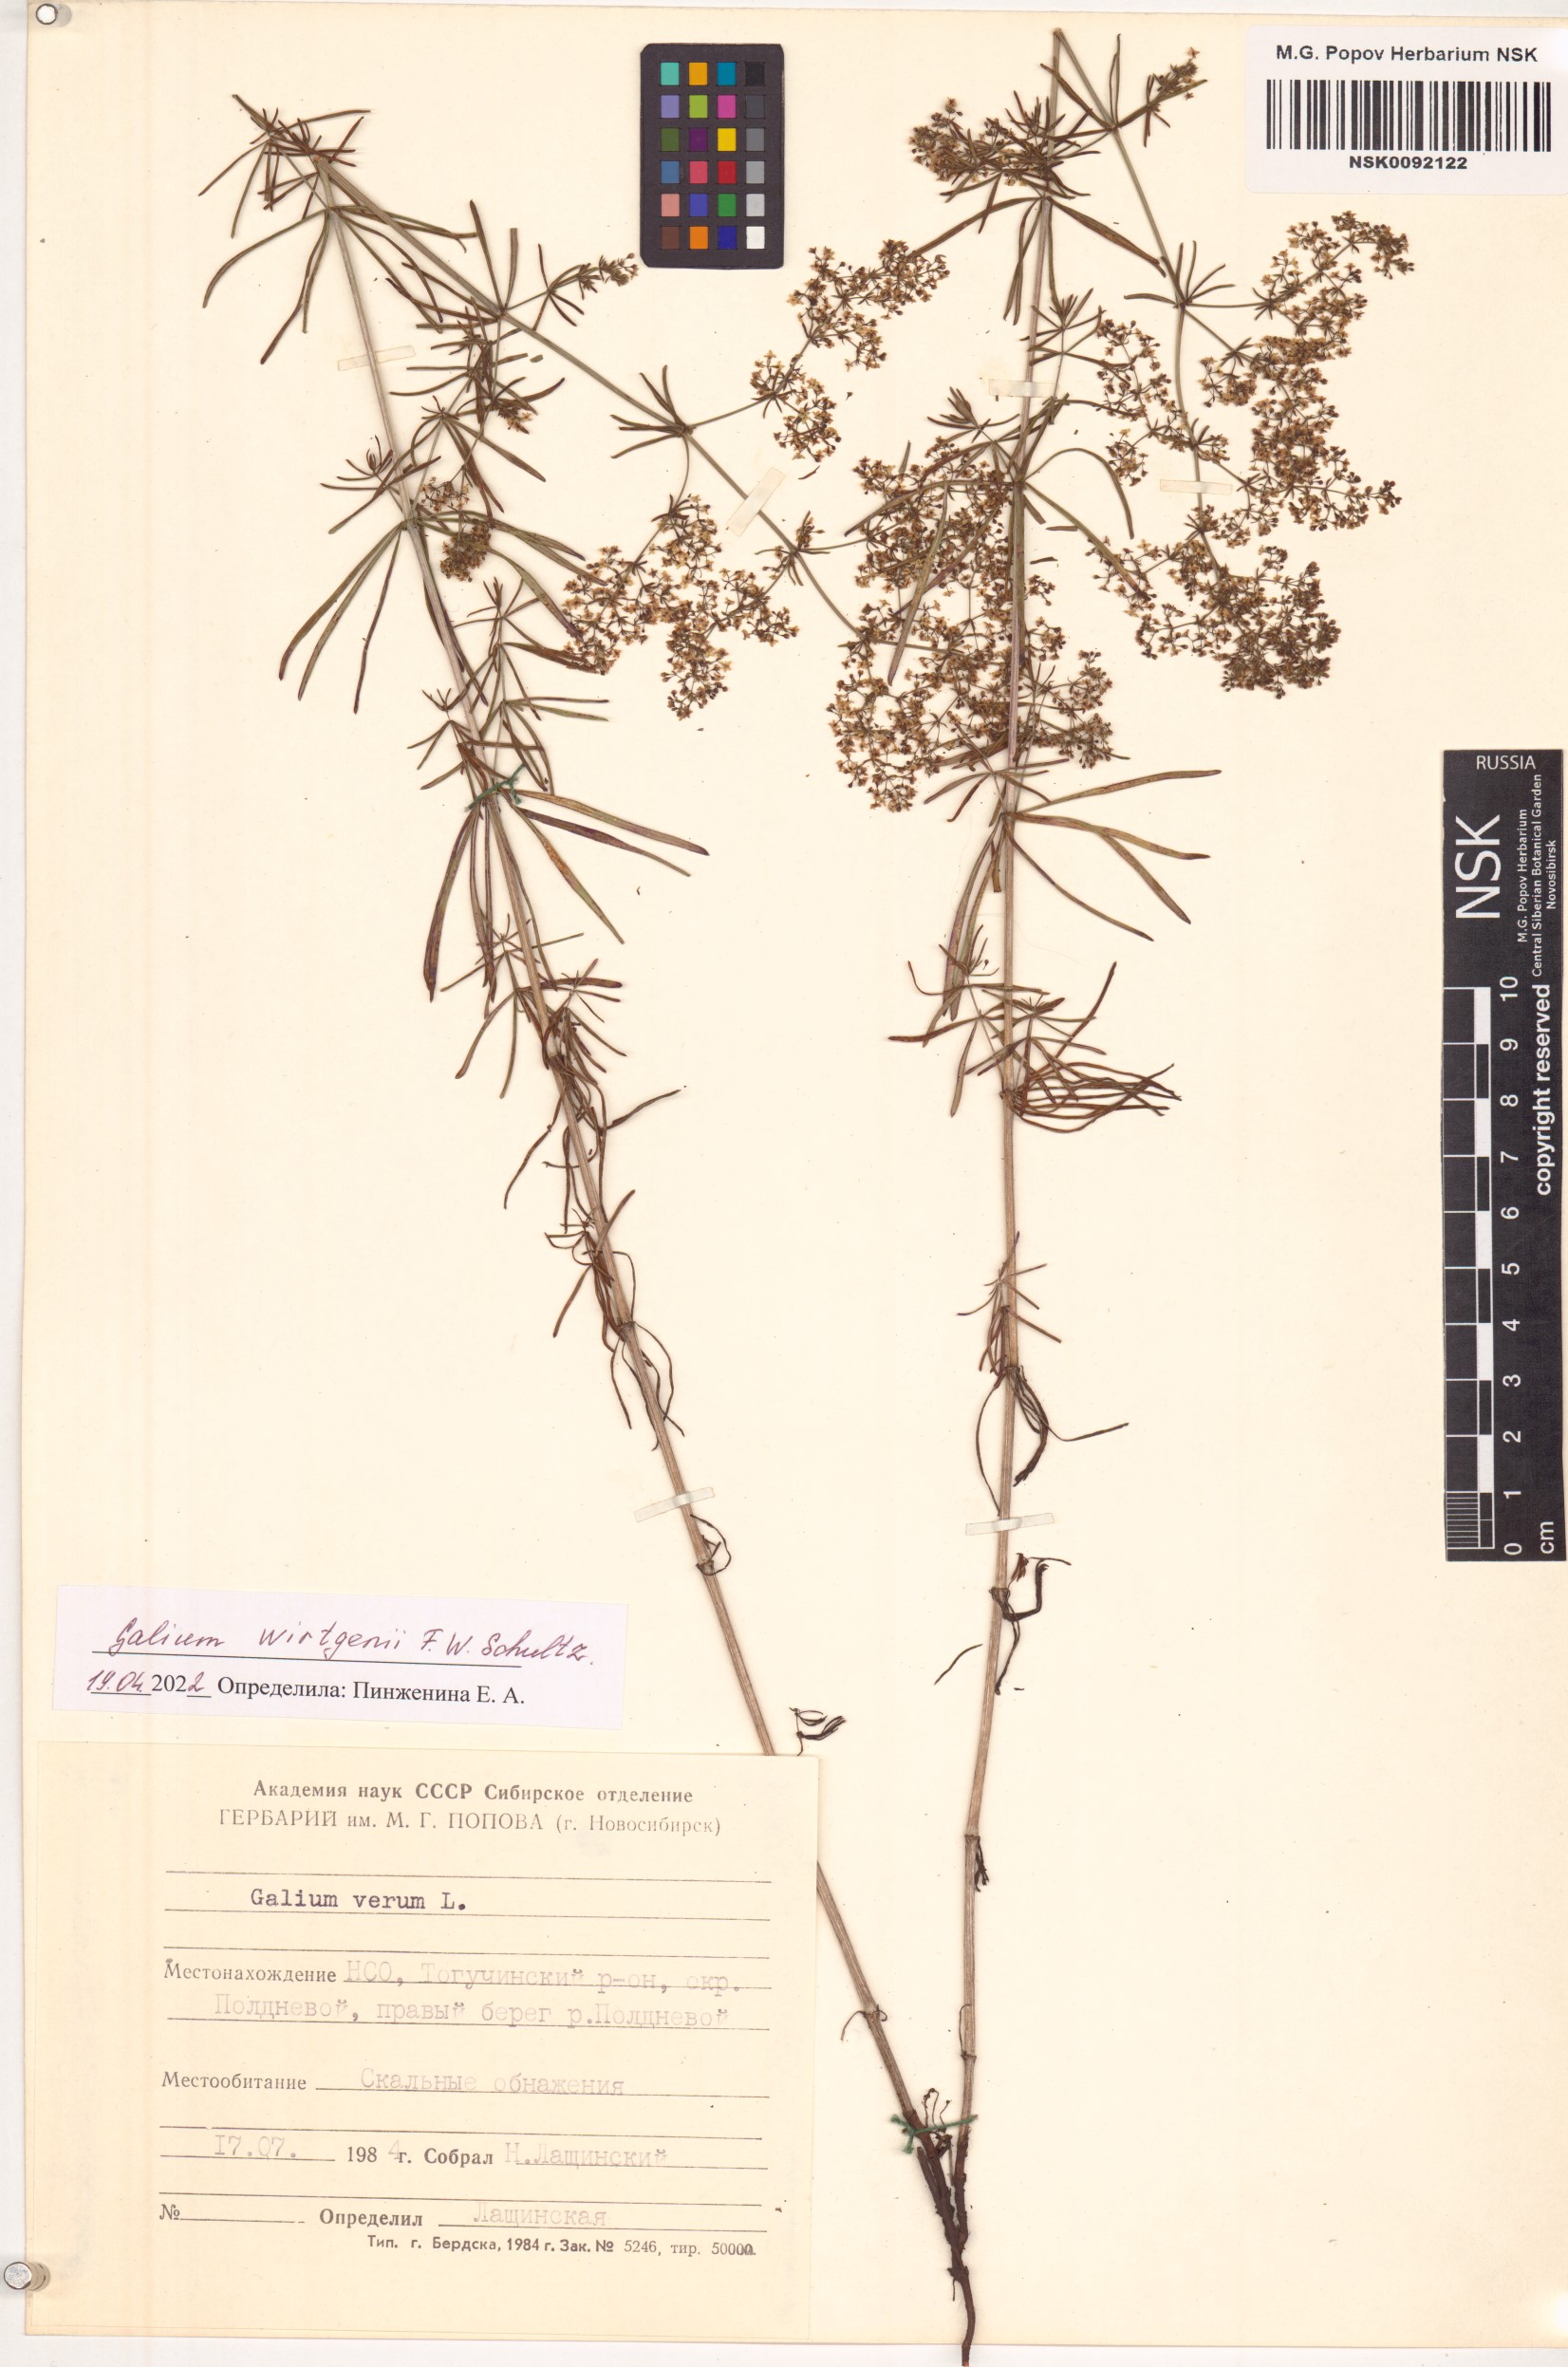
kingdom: Plantae
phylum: Tracheophyta
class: Magnoliopsida
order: Gentianales
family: Rubiaceae
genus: Galium
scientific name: Galium verum
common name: Lady's bedstraw
